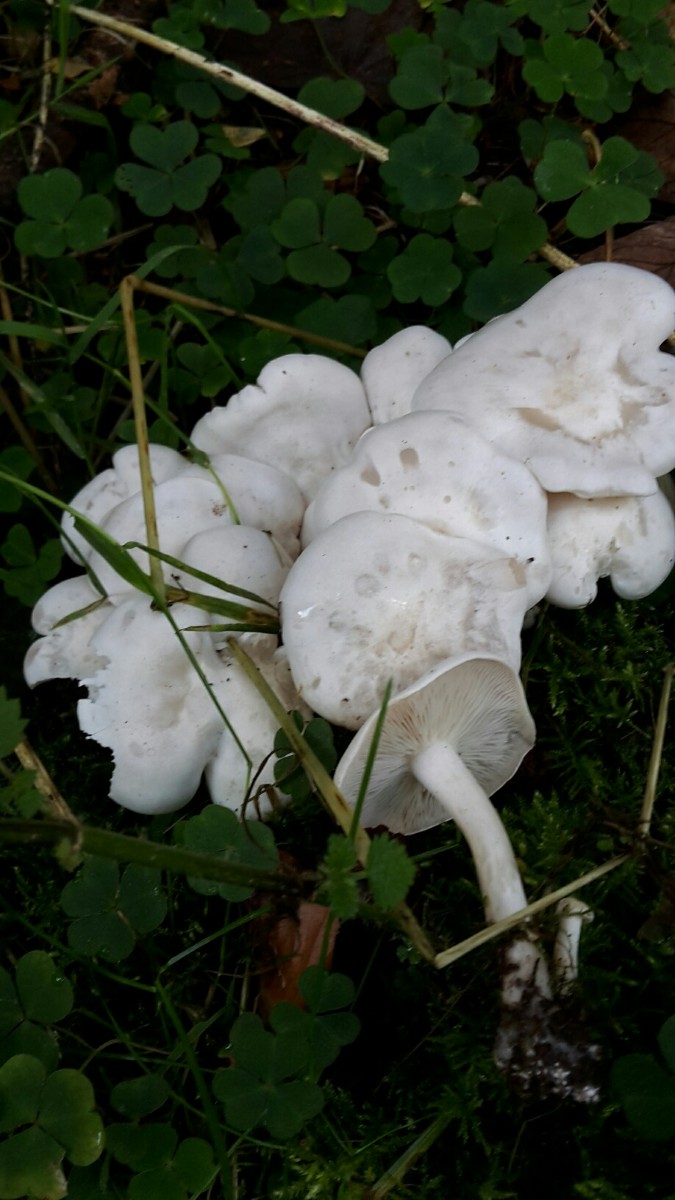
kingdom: Fungi
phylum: Basidiomycota
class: Agaricomycetes
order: Agaricales
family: Tricholomataceae
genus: Leucocybe
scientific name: Leucocybe connata
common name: knippe-tragthat
